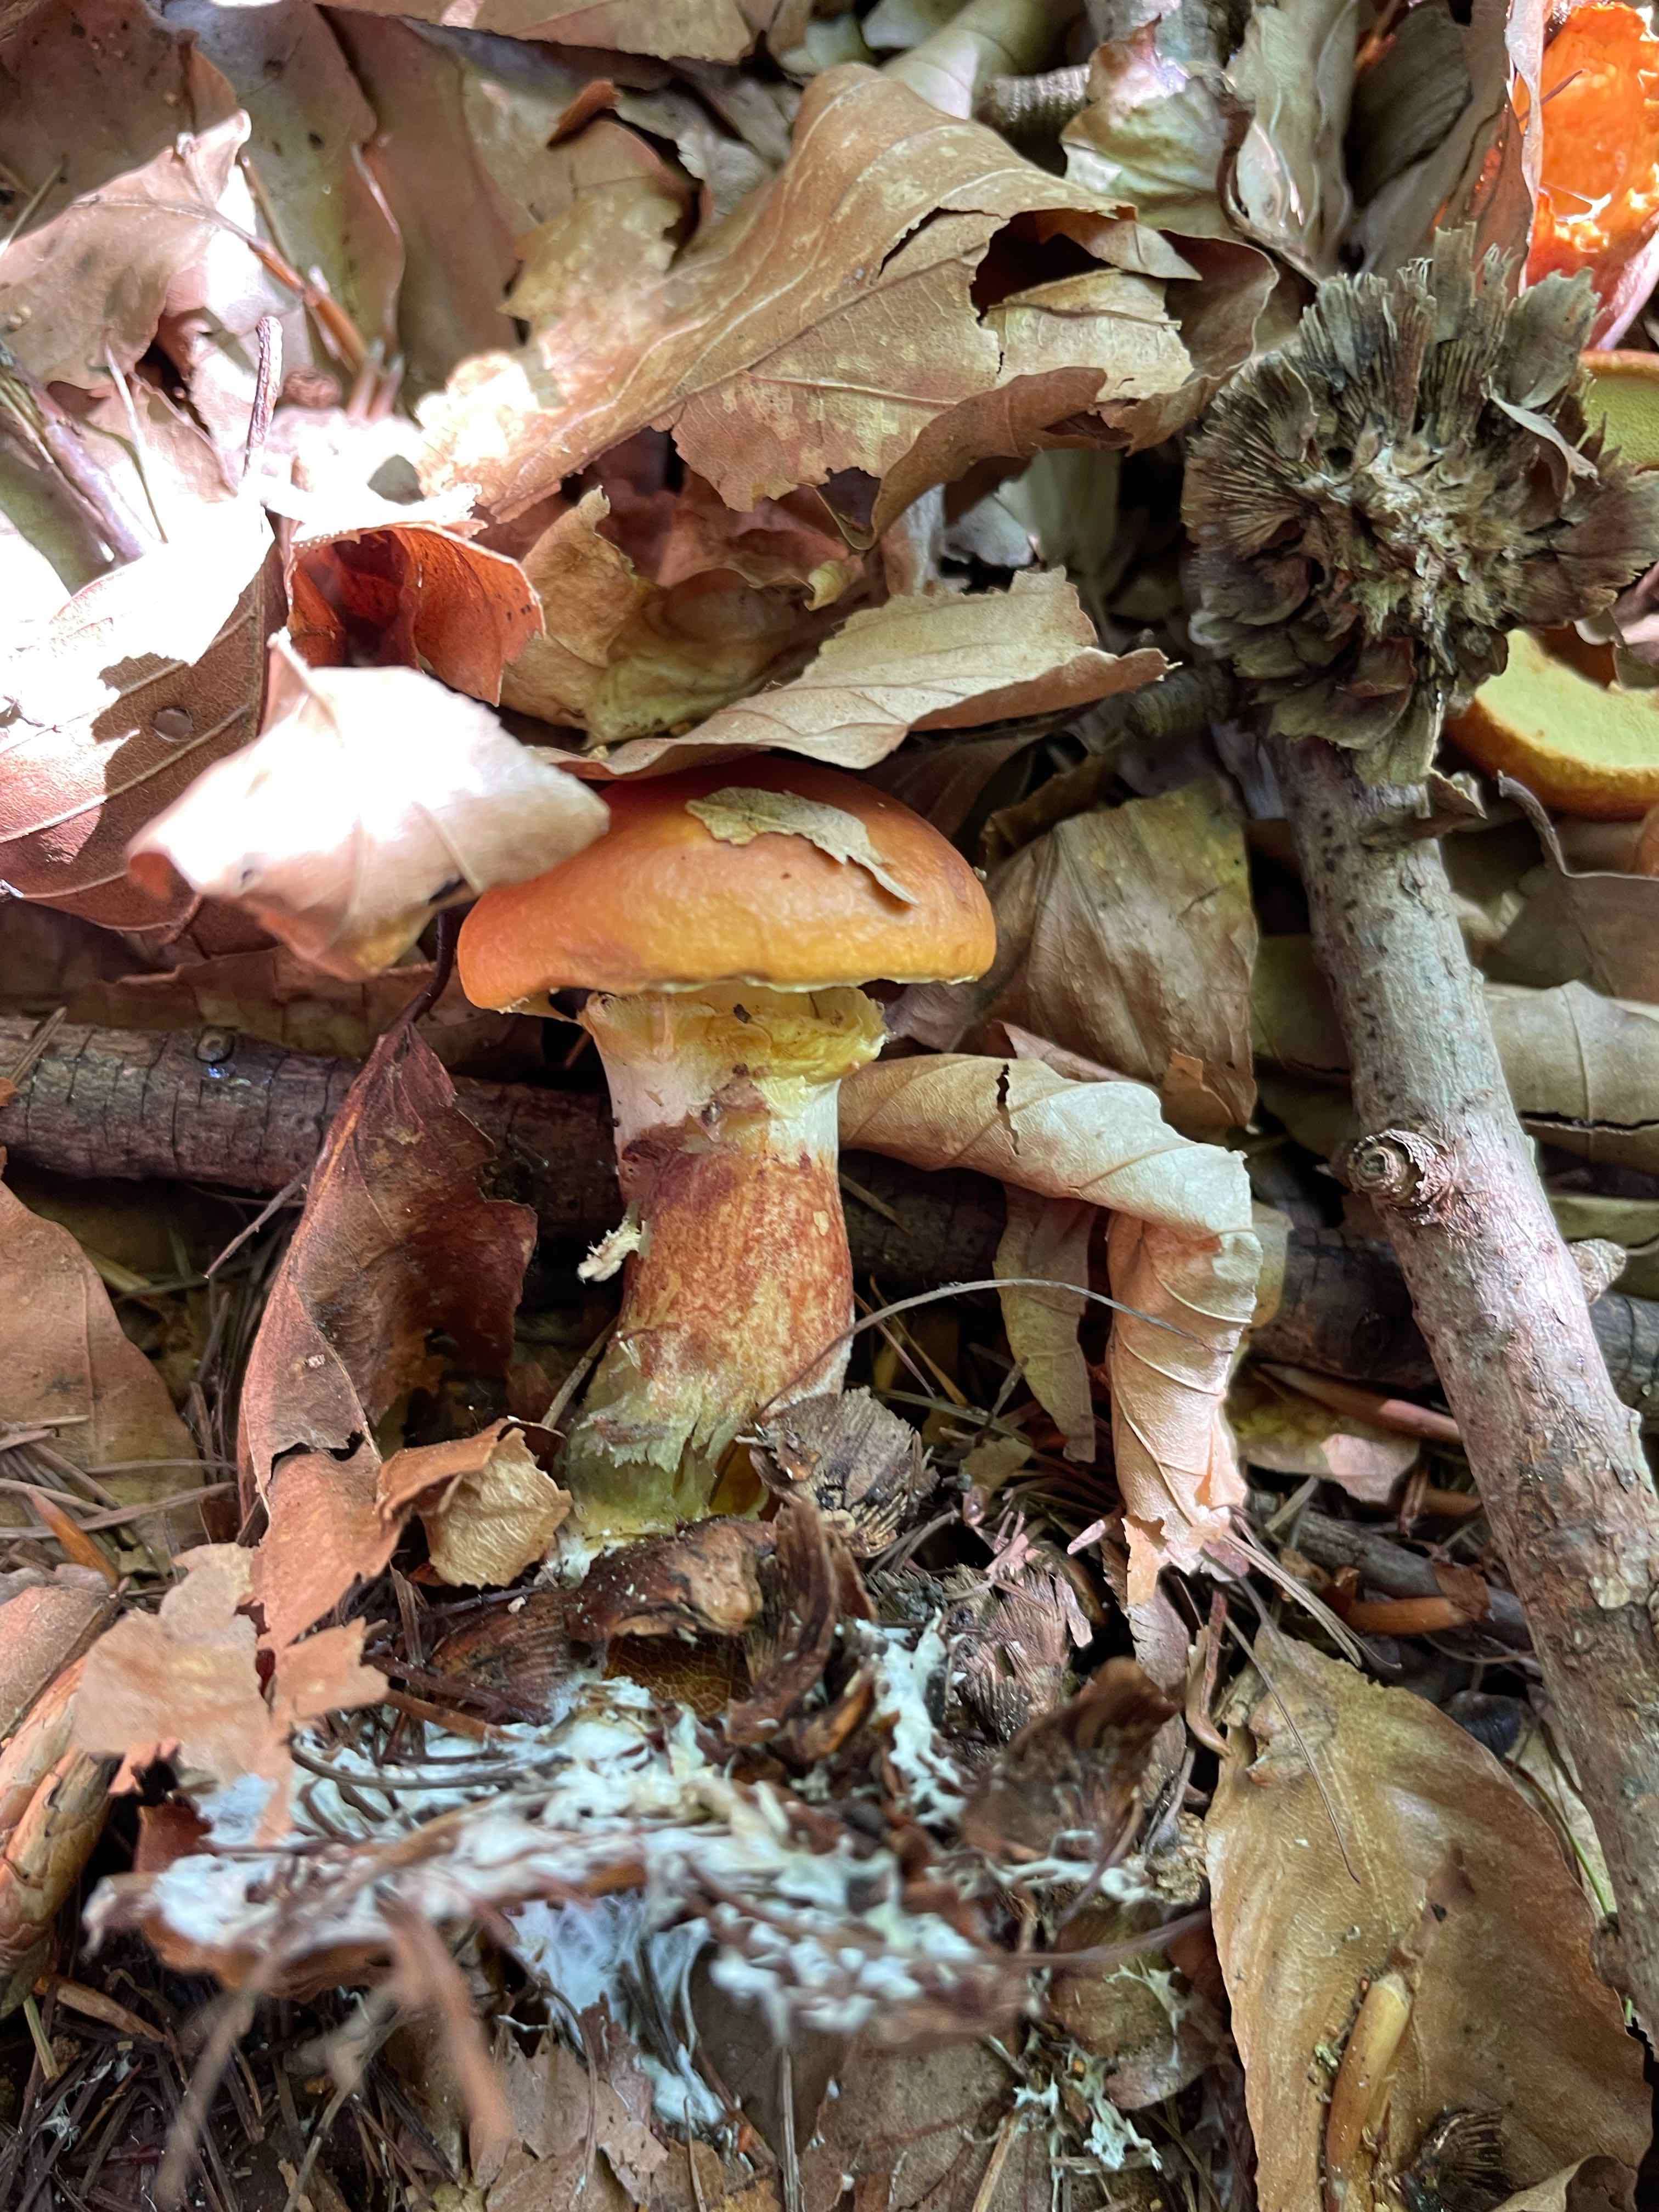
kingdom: Fungi
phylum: Basidiomycota
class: Agaricomycetes
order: Boletales
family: Suillaceae
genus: Suillus
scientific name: Suillus grevillei
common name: lærke-slimrørhat
